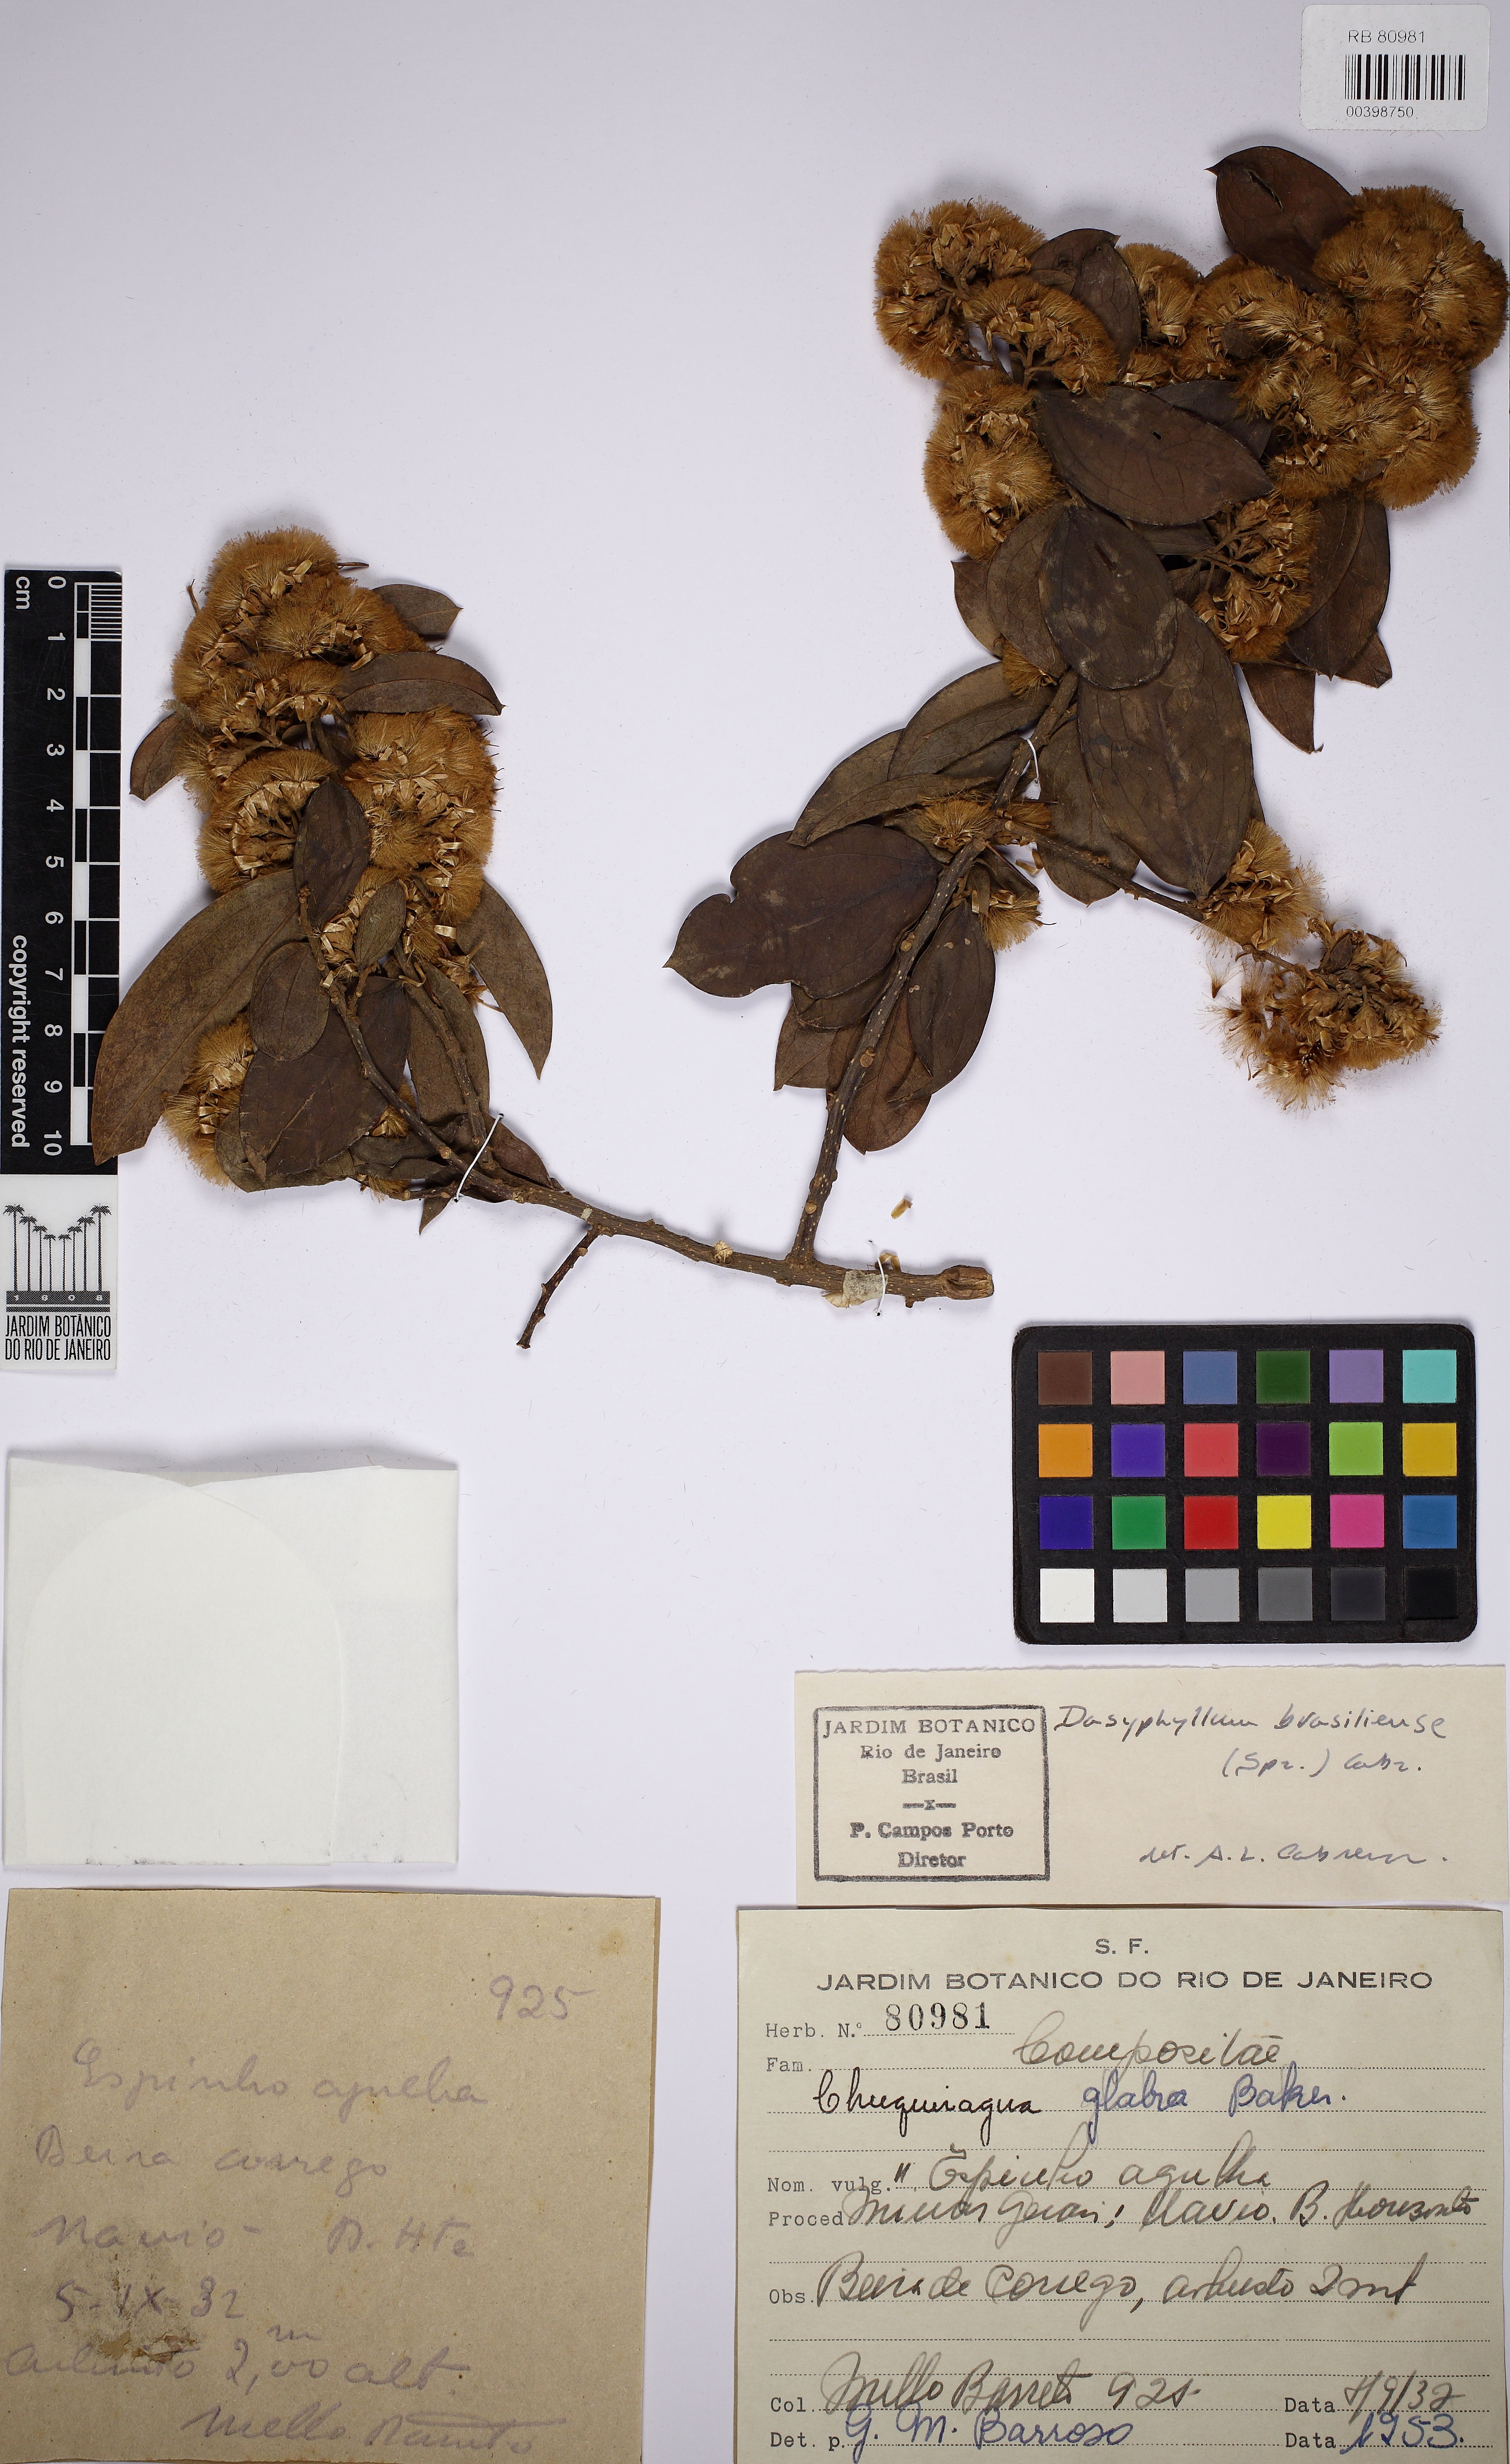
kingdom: Plantae
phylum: Tracheophyta
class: Magnoliopsida
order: Asterales
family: Asteraceae
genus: Dasyphyllum
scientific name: Dasyphyllum brasiliense
